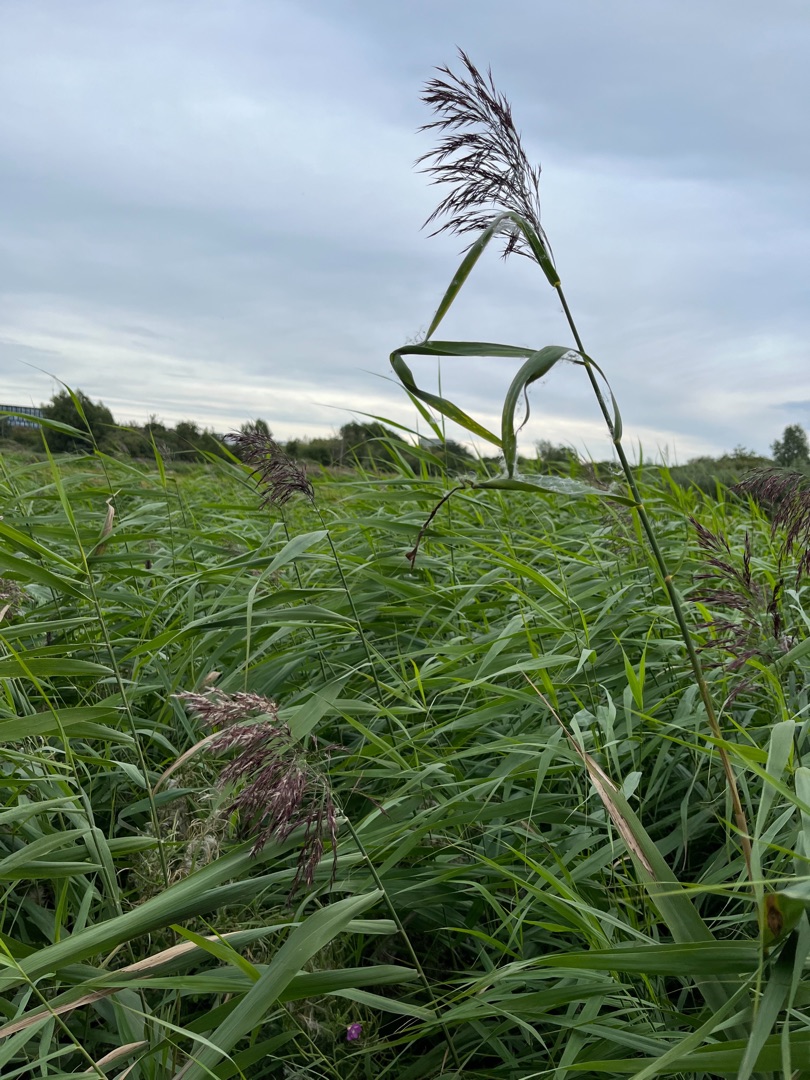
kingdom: Plantae
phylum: Tracheophyta
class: Liliopsida
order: Poales
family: Poaceae
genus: Phragmites
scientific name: Phragmites australis
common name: Tagrør
